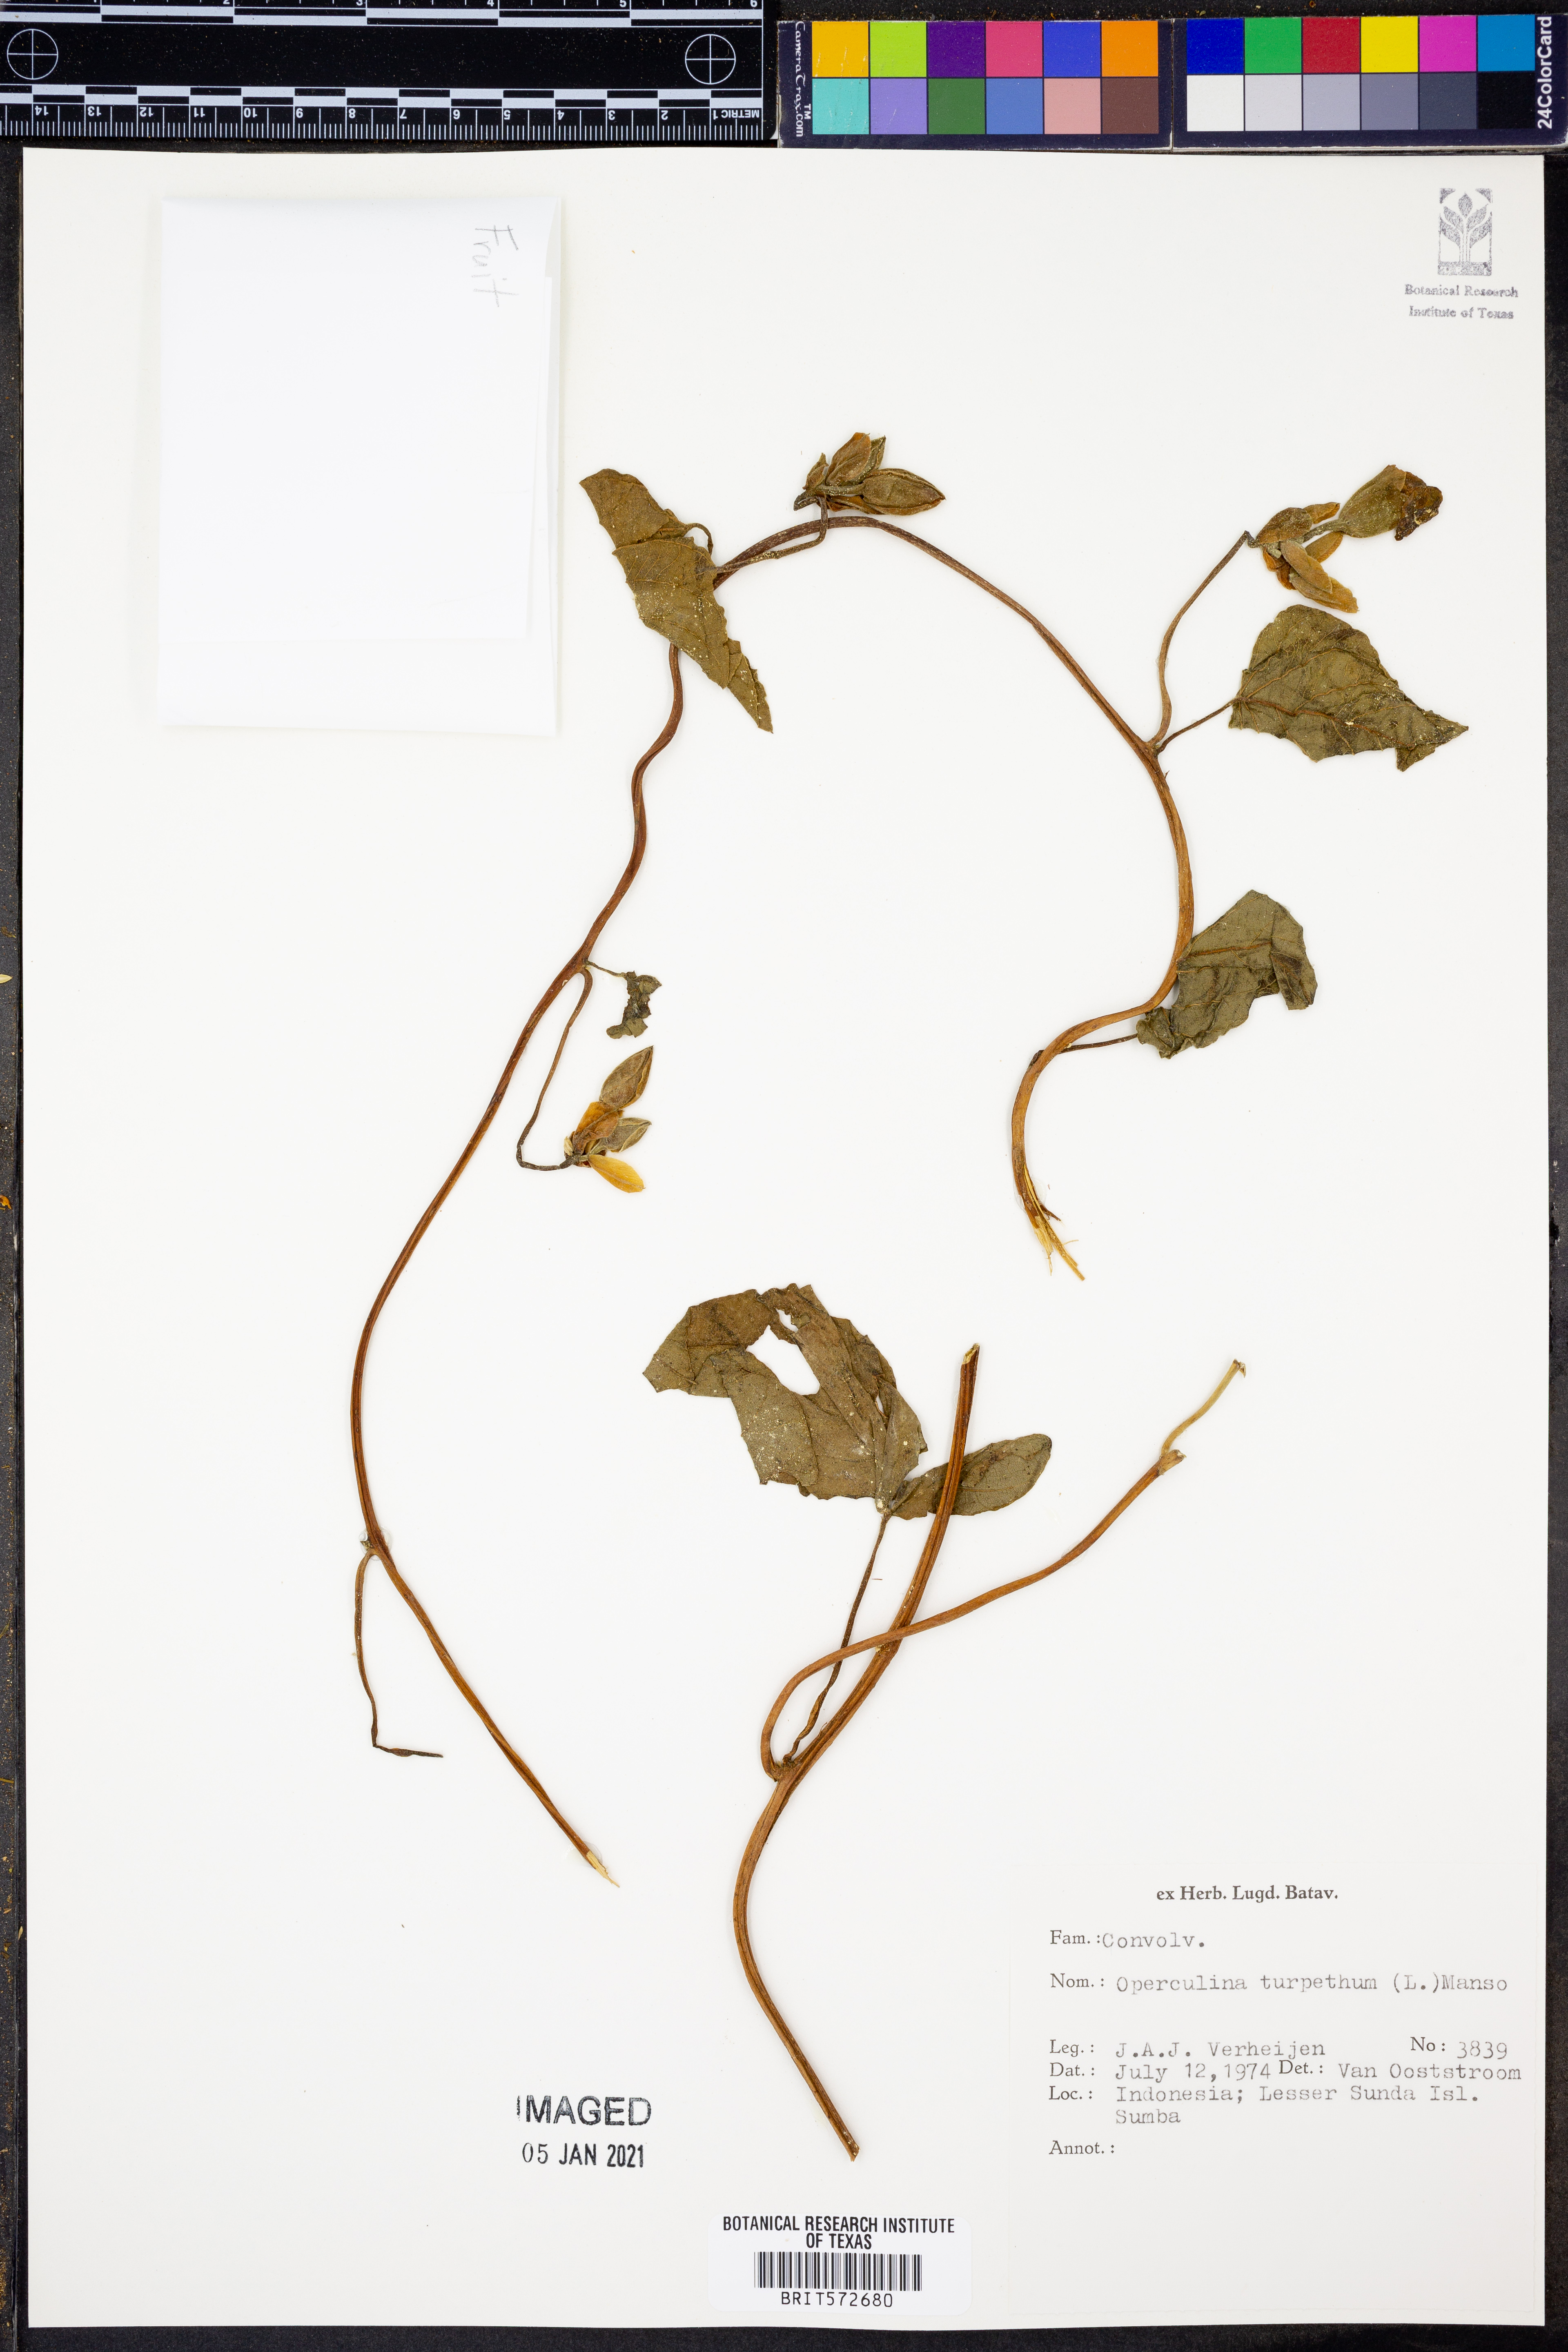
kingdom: Plantae
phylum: Tracheophyta
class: Magnoliopsida
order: Solanales
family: Convolvulaceae
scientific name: Convolvulaceae
